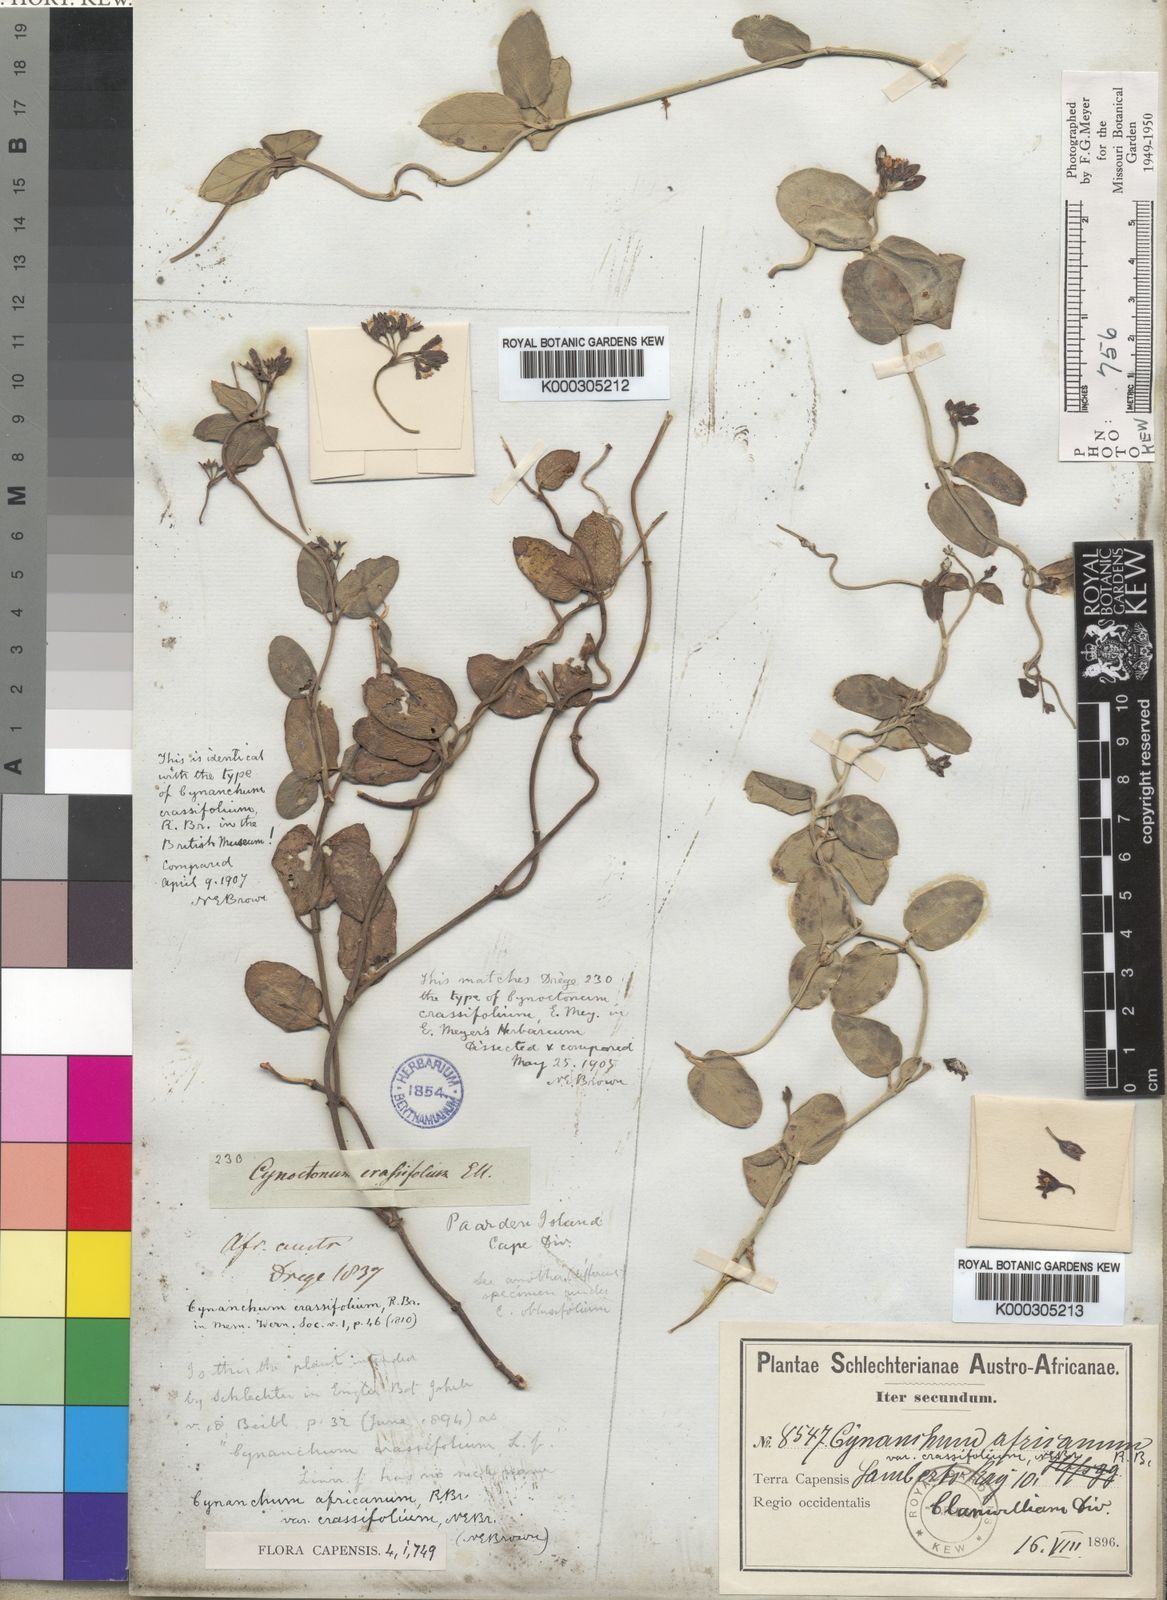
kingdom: Plantae
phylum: Tracheophyta
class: Magnoliopsida
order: Gentianales
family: Apocynaceae
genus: Cynanchum
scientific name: Cynanchum africanum
